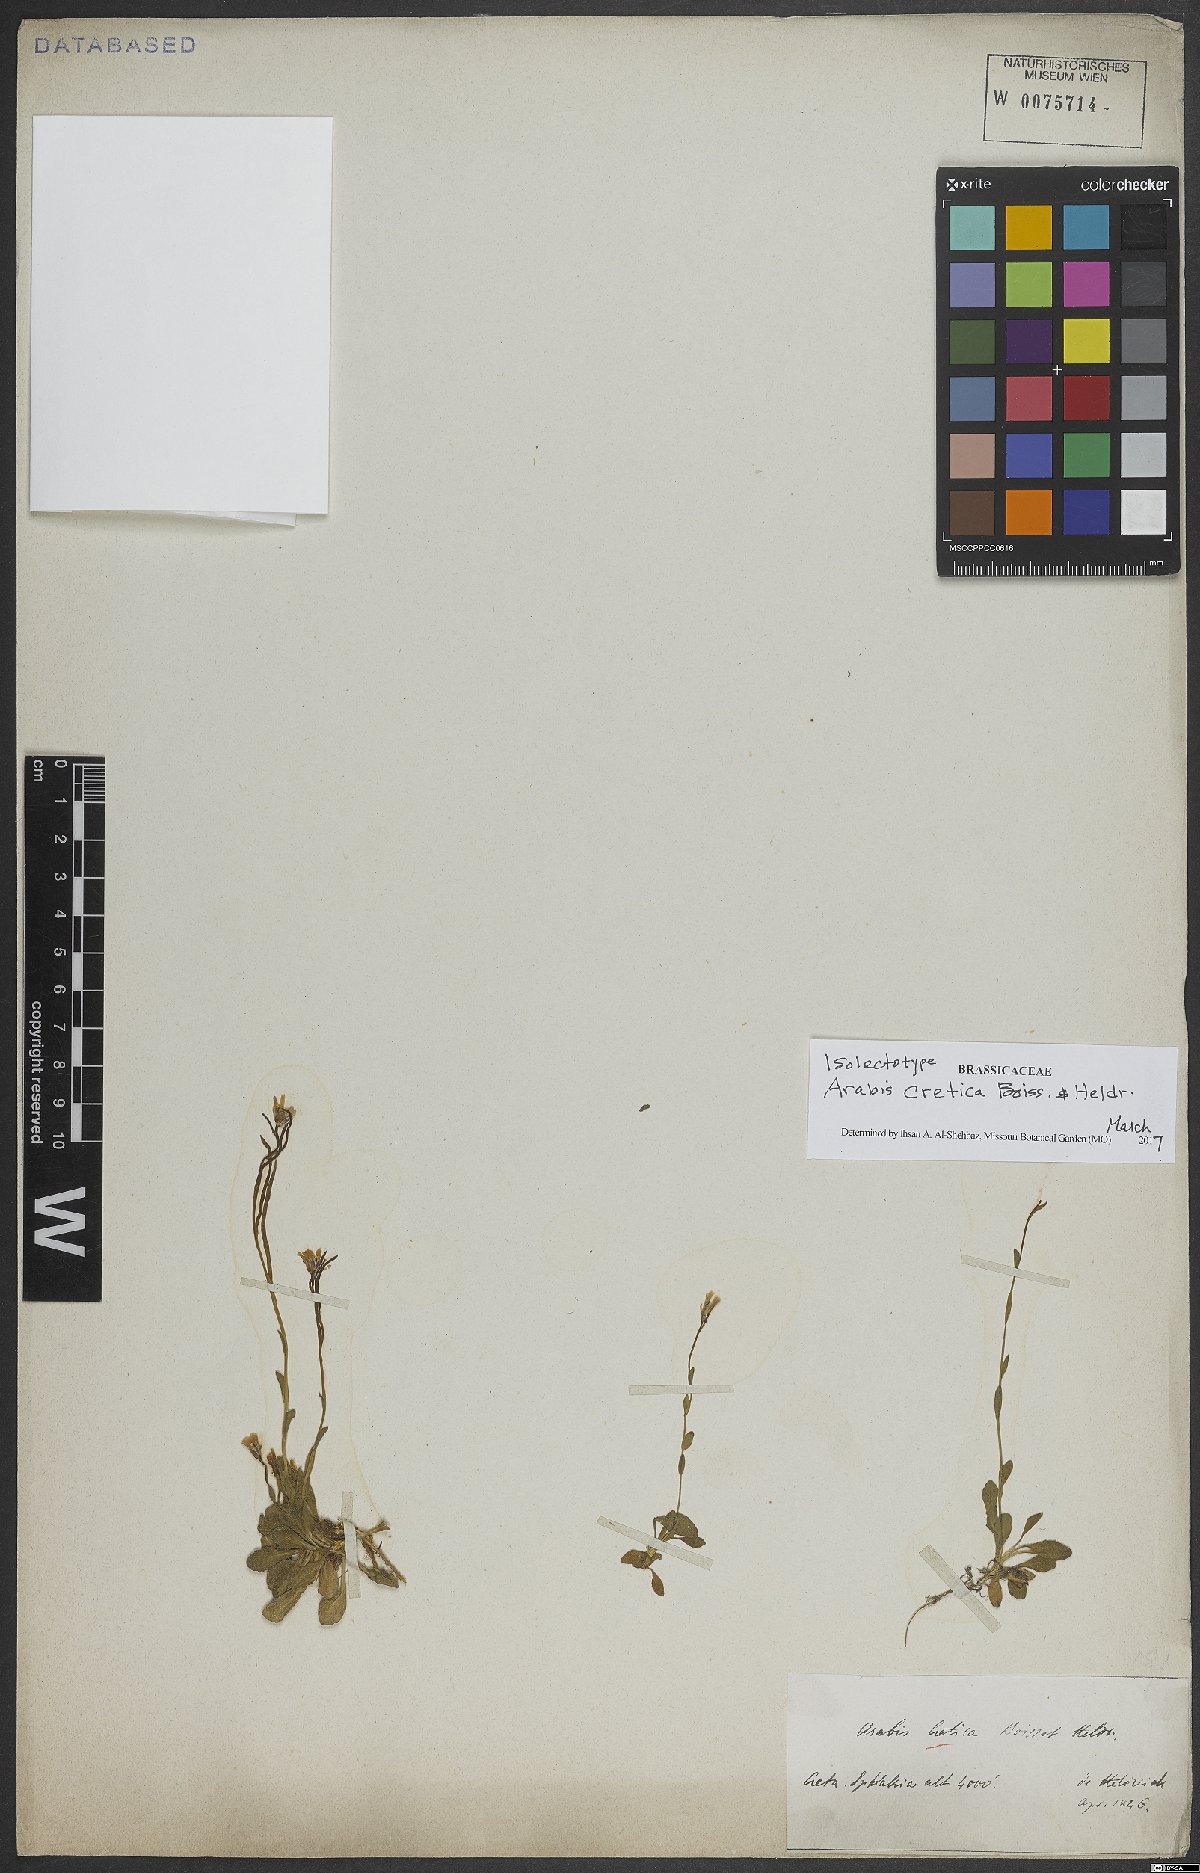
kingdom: Plantae
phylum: Tracheophyta
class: Magnoliopsida
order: Brassicales
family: Brassicaceae
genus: Arabis
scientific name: Arabis cretica
